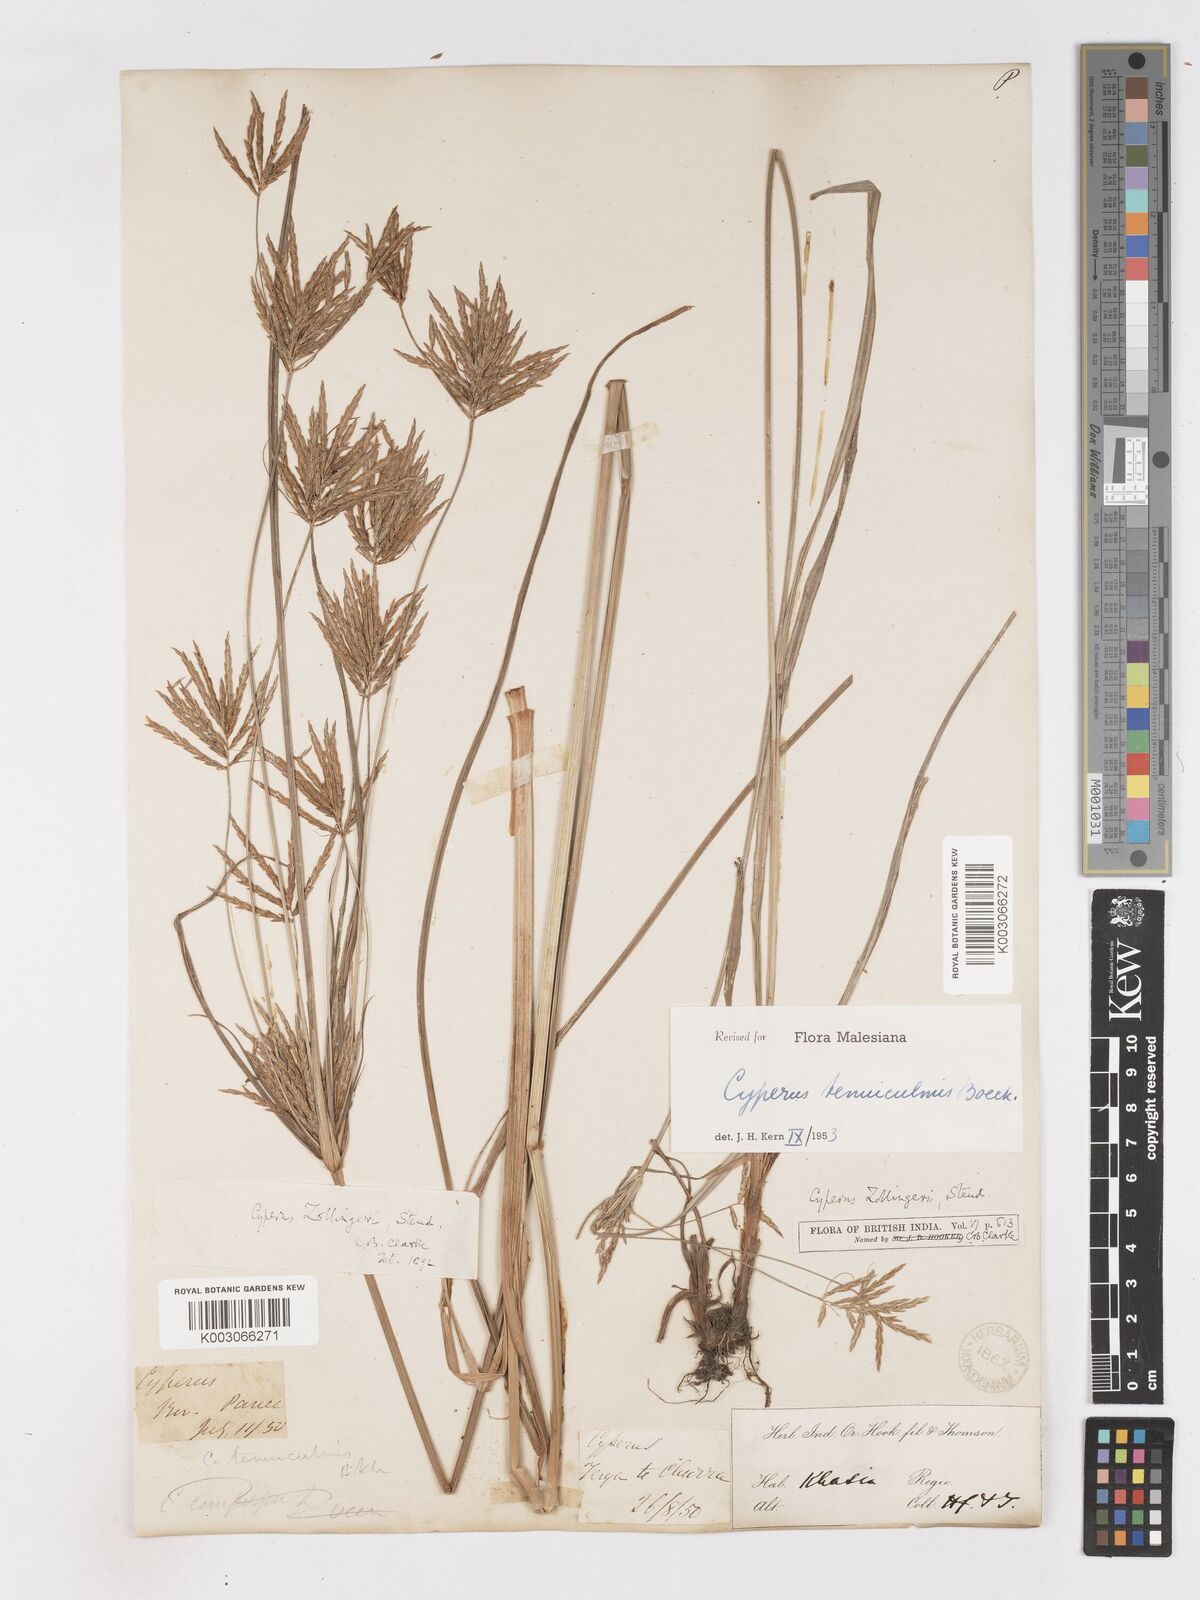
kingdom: Plantae
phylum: Tracheophyta
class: Liliopsida
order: Poales
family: Cyperaceae
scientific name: Cyperaceae
